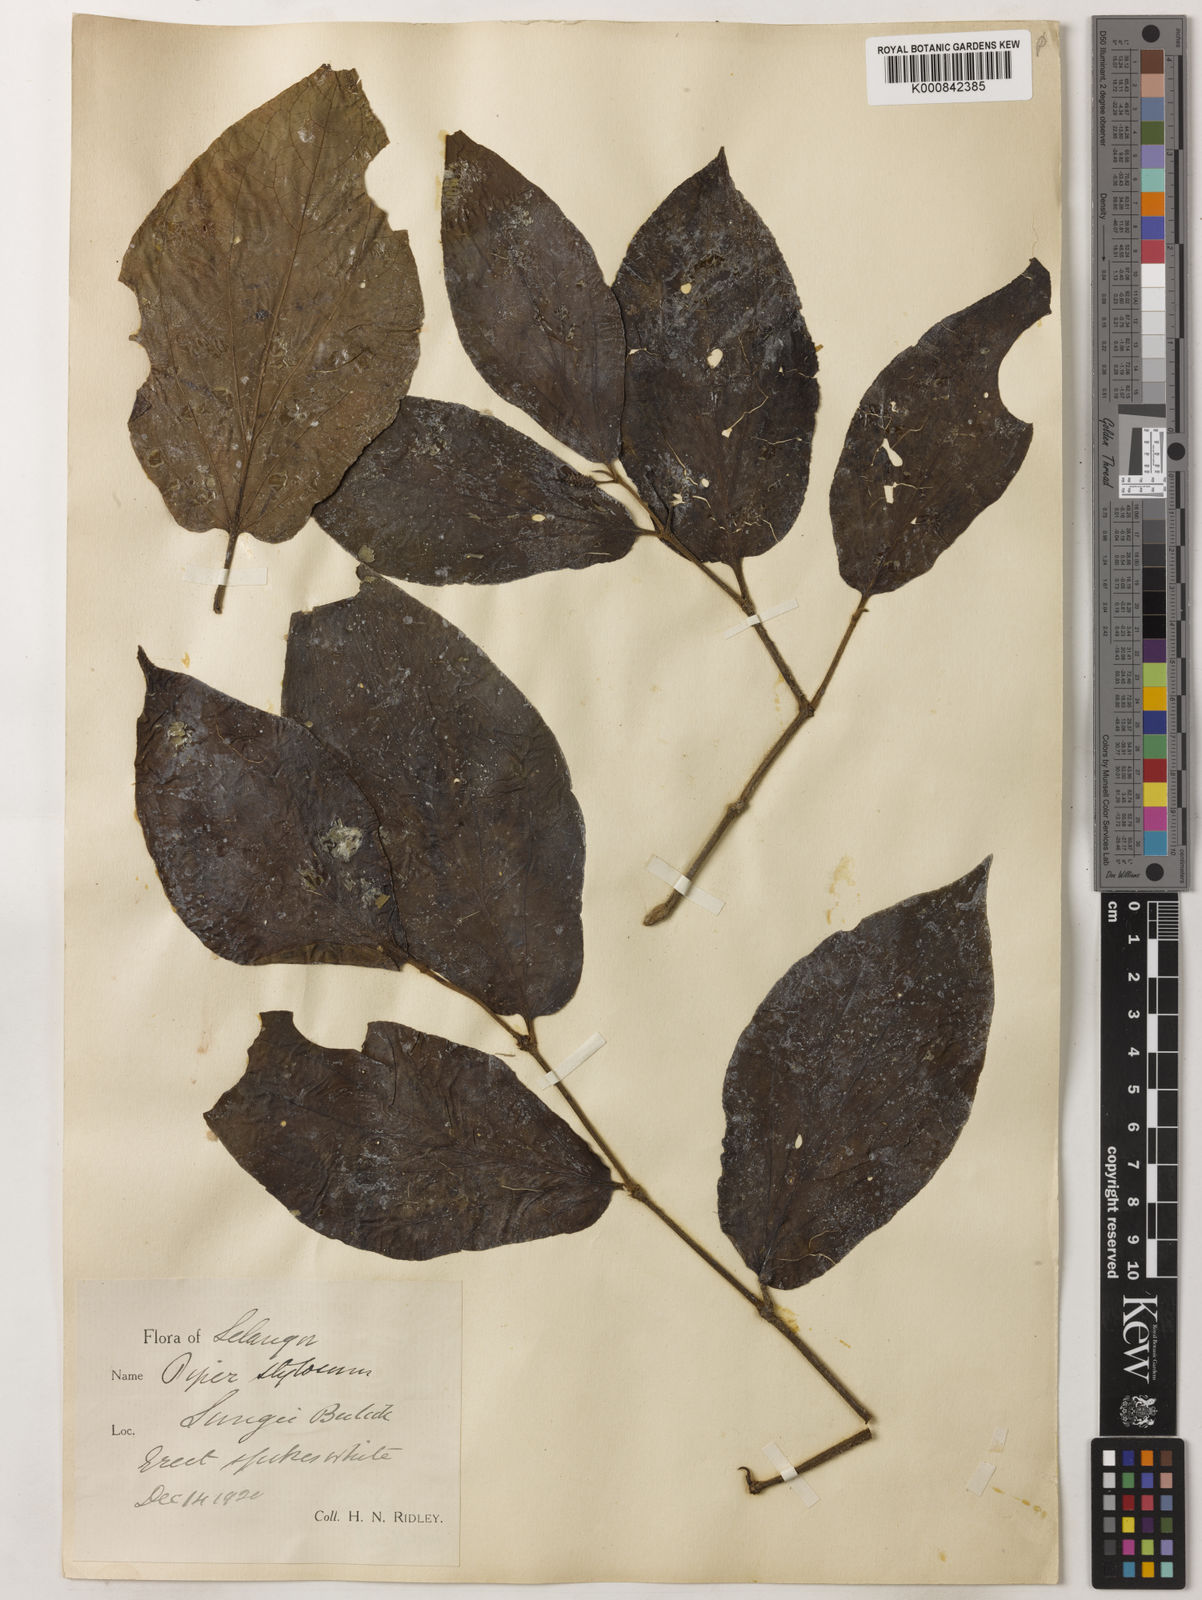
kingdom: Plantae
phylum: Tracheophyta
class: Magnoliopsida
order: Piperales
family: Piperaceae
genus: Piper
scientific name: Piper rostratum
